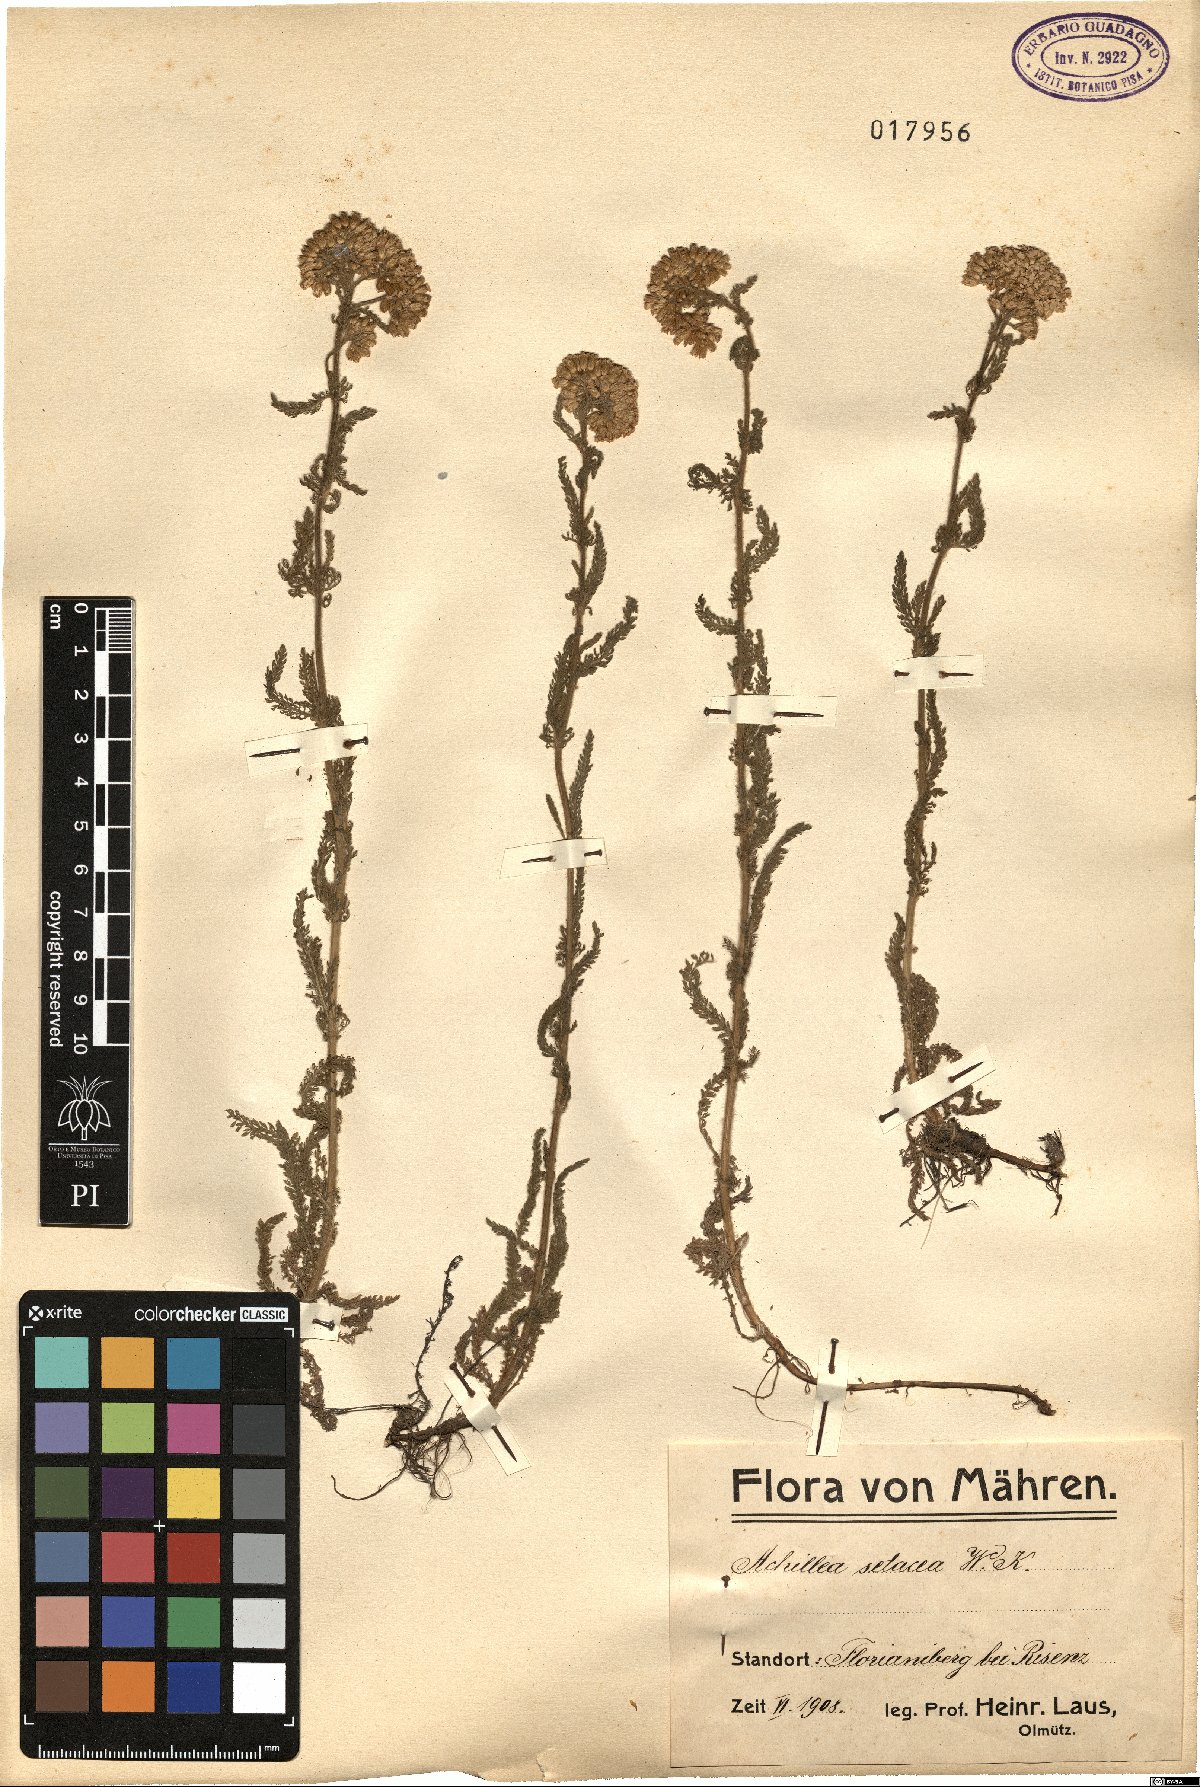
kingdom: Plantae
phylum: Tracheophyta
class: Magnoliopsida
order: Asterales
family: Asteraceae
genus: Achillea
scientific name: Achillea setacea
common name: Bristly yarrow
